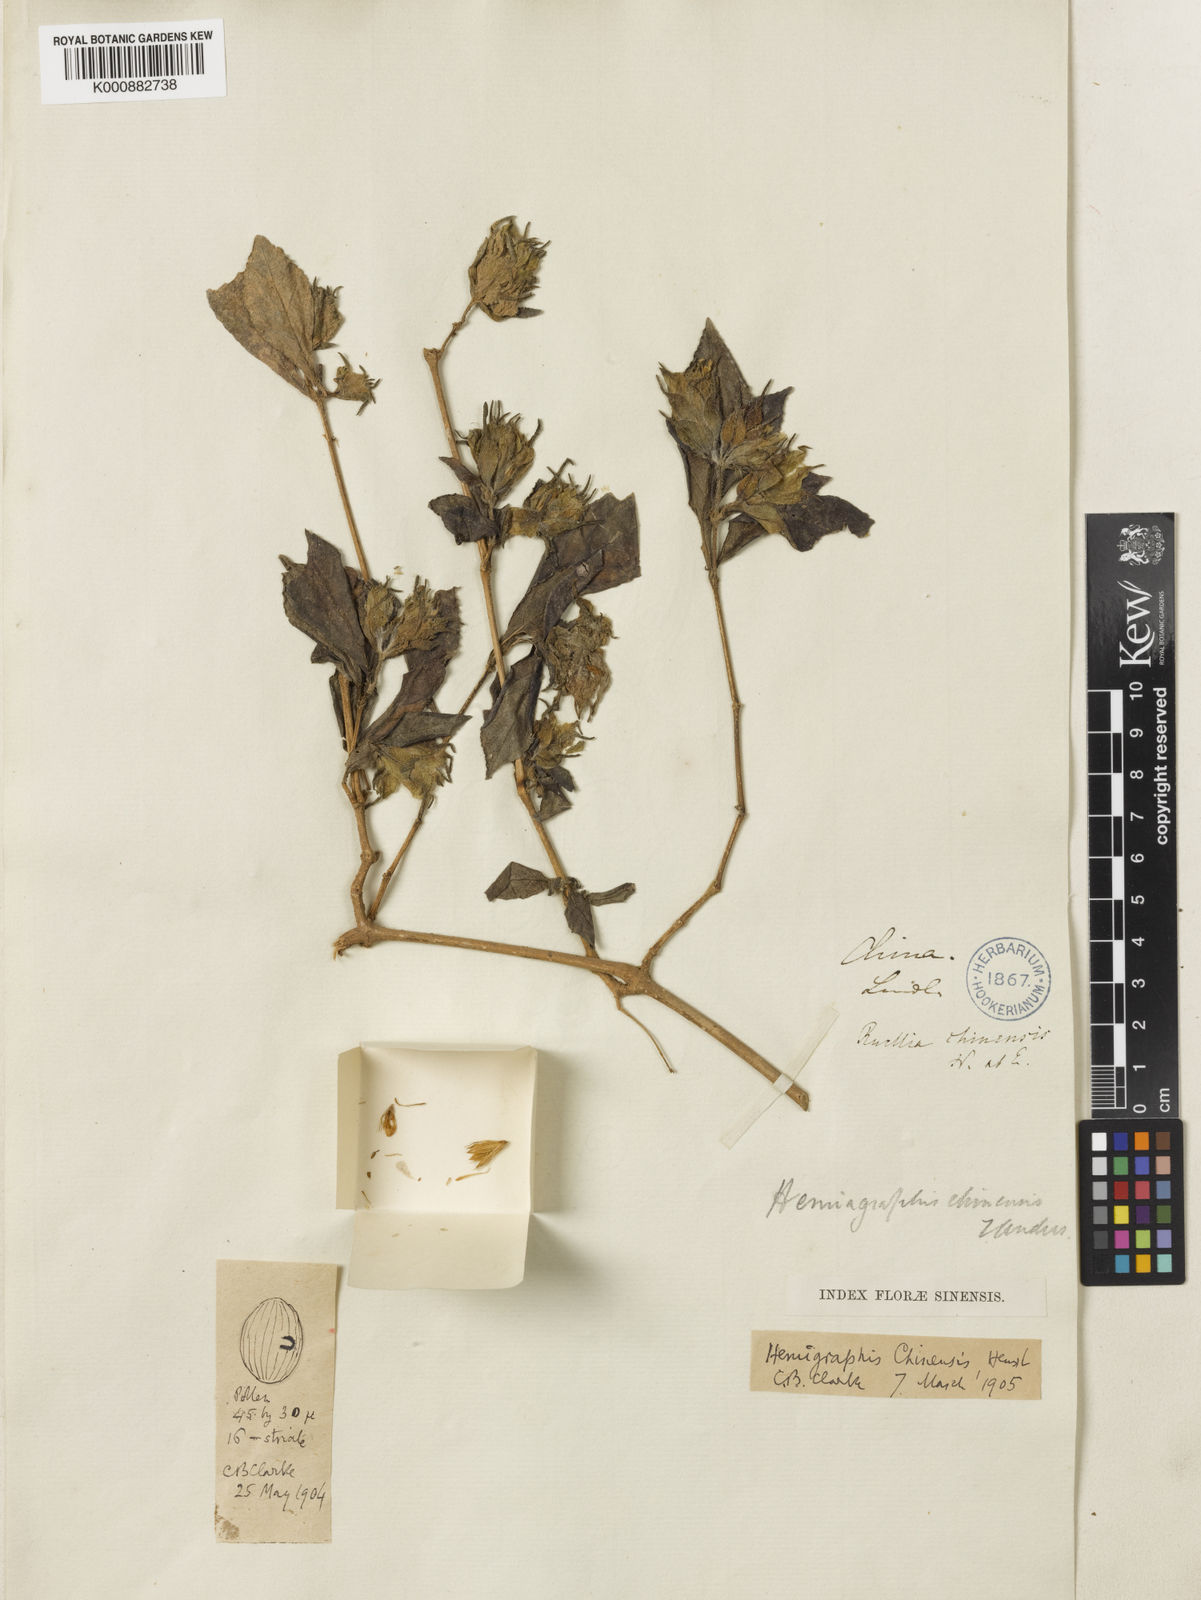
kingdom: Plantae
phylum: Tracheophyta
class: Magnoliopsida
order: Lamiales
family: Acanthaceae
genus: Strobilanthes
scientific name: Strobilanthes chinensis
